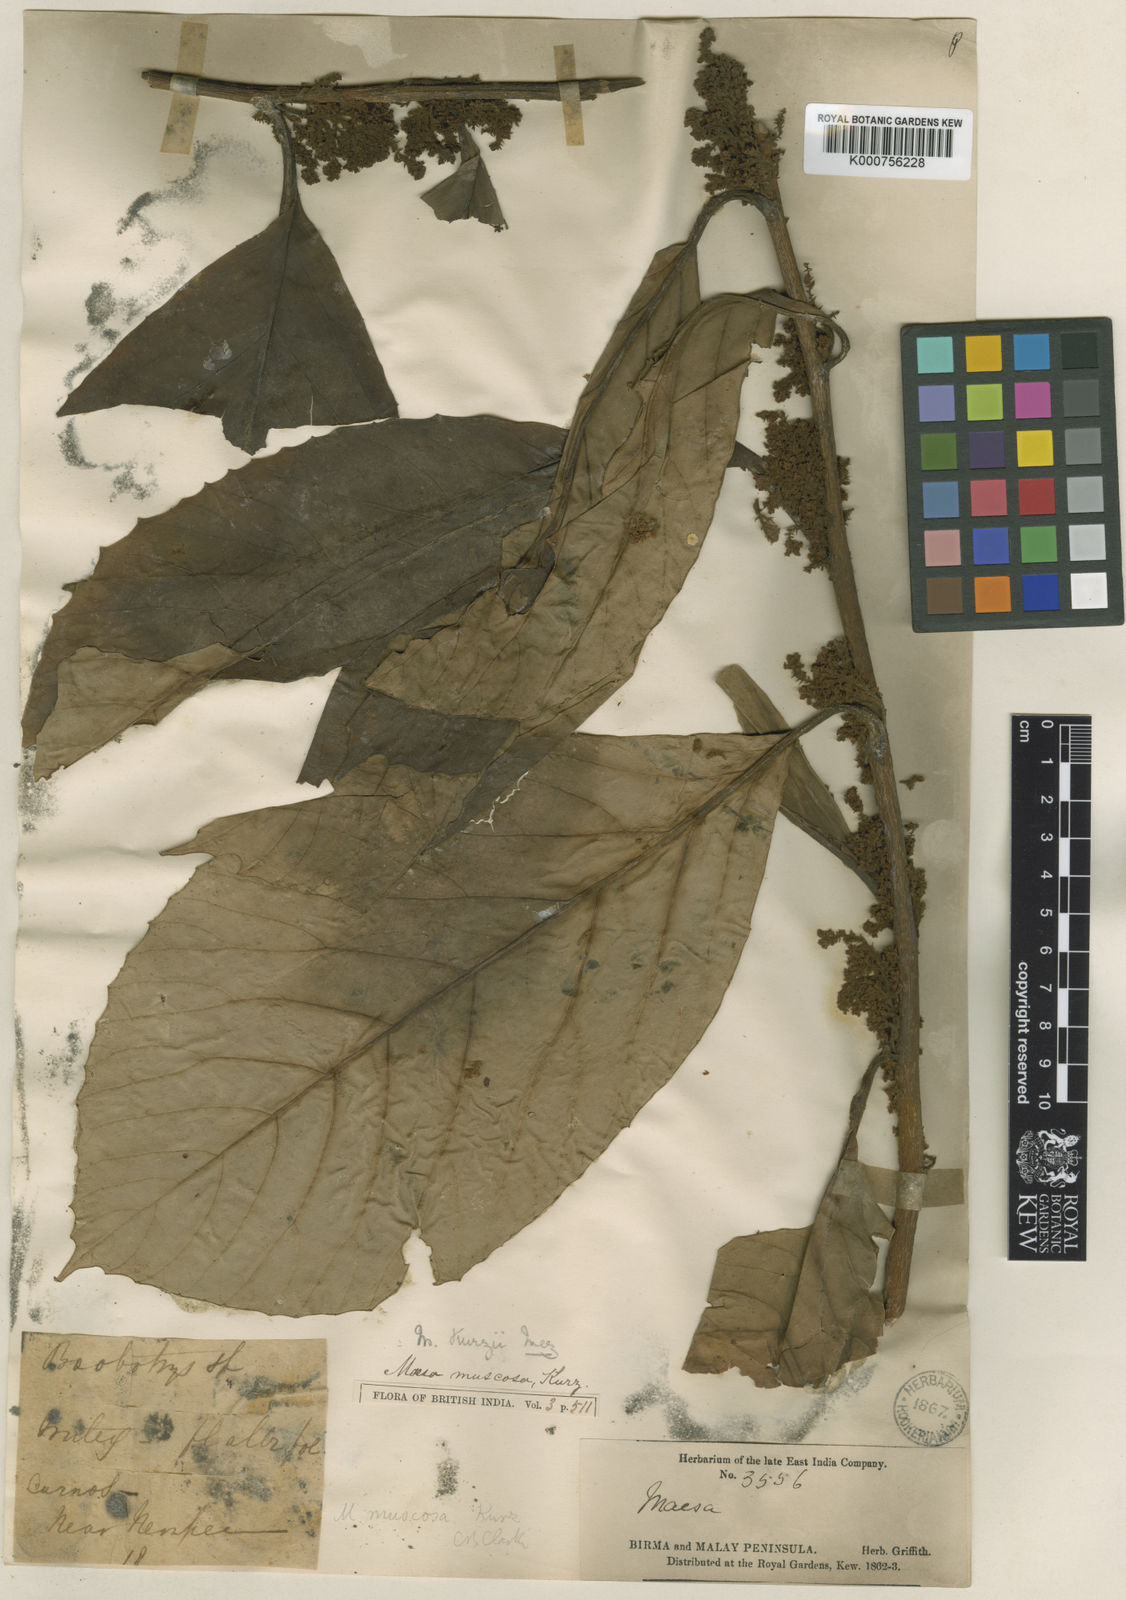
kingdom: Plantae
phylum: Tracheophyta
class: Magnoliopsida
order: Ericales
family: Primulaceae
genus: Maesa
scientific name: Maesa kurzii
